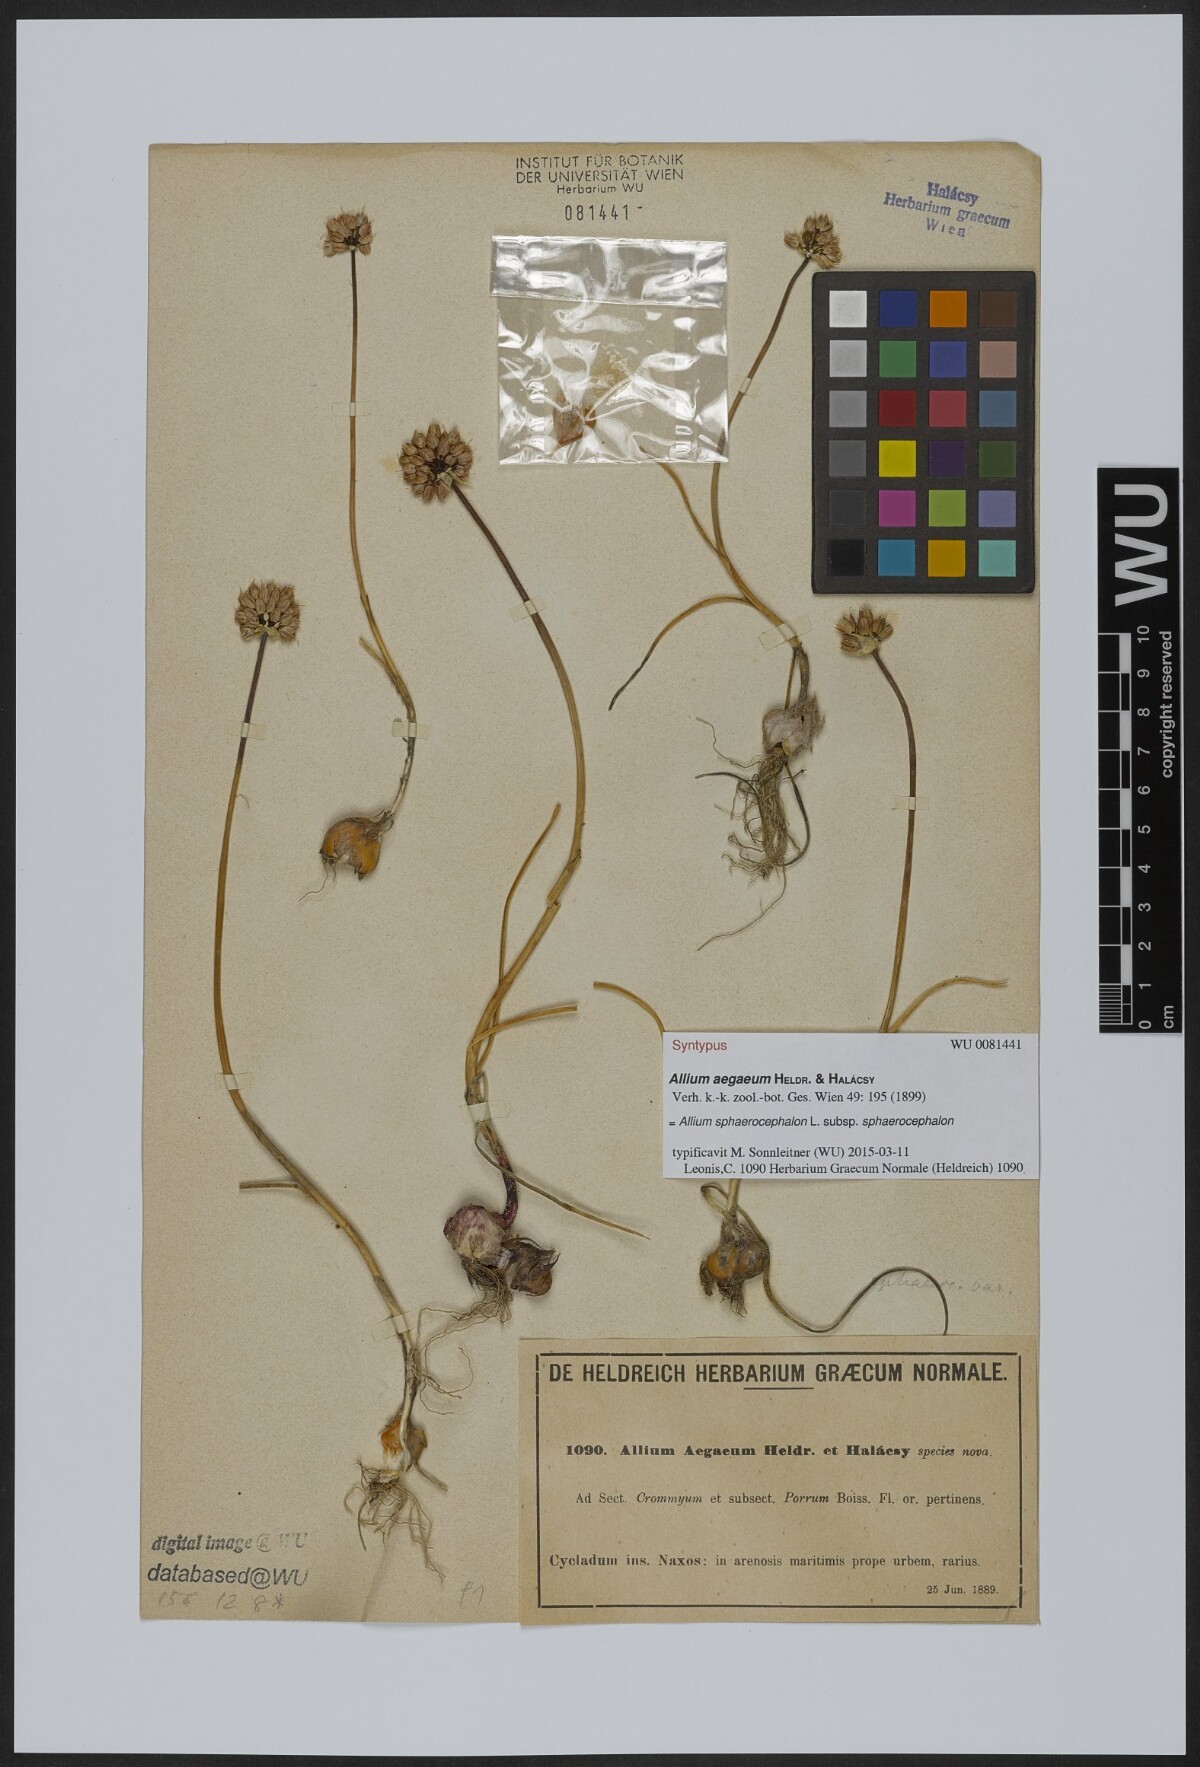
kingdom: Plantae
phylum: Tracheophyta
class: Liliopsida
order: Asparagales
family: Amaryllidaceae
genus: Allium
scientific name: Allium sphaerocephalon
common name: Round-headed leek
